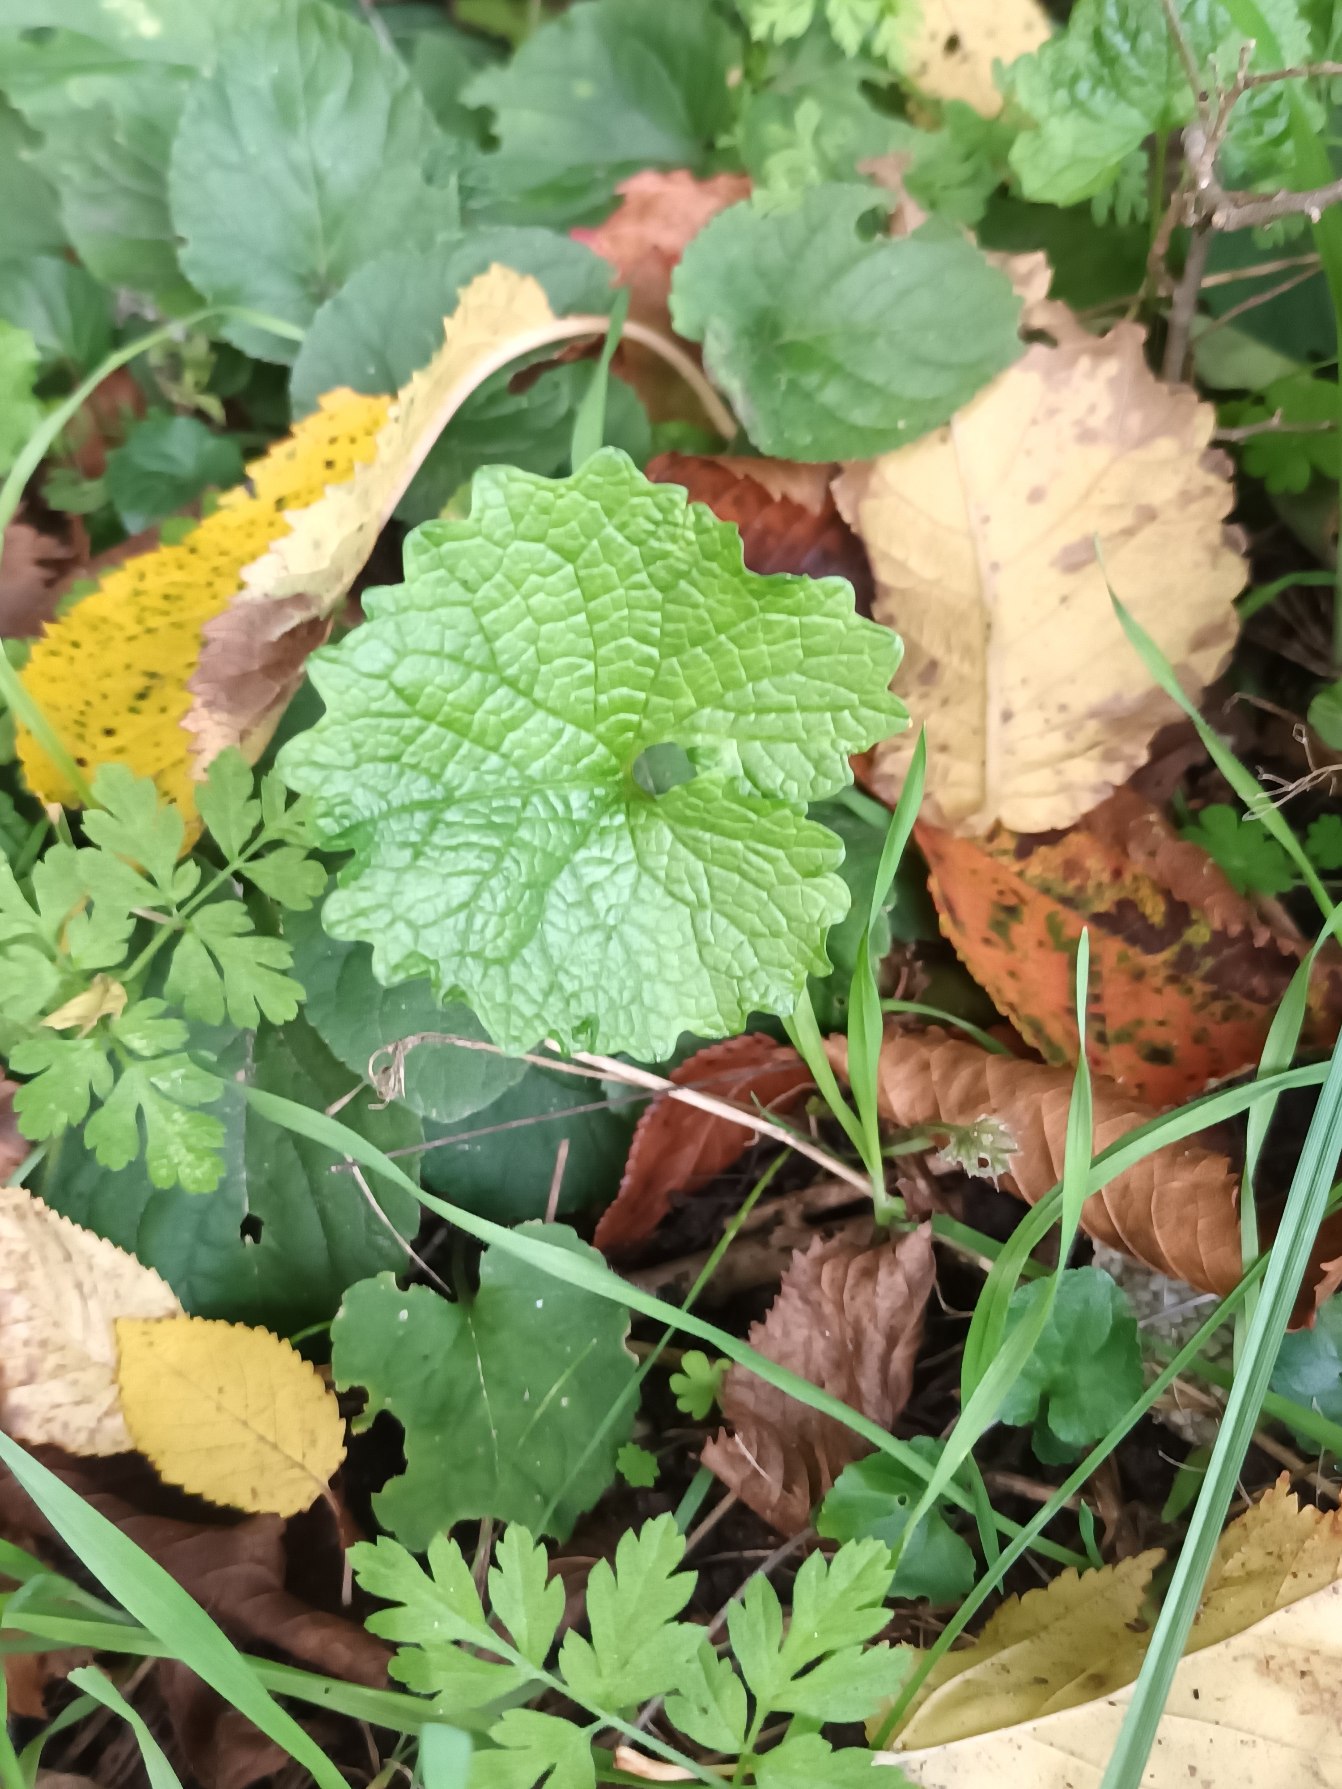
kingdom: Plantae
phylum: Tracheophyta
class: Magnoliopsida
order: Brassicales
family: Brassicaceae
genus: Alliaria
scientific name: Alliaria petiolata
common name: Løgkarse
